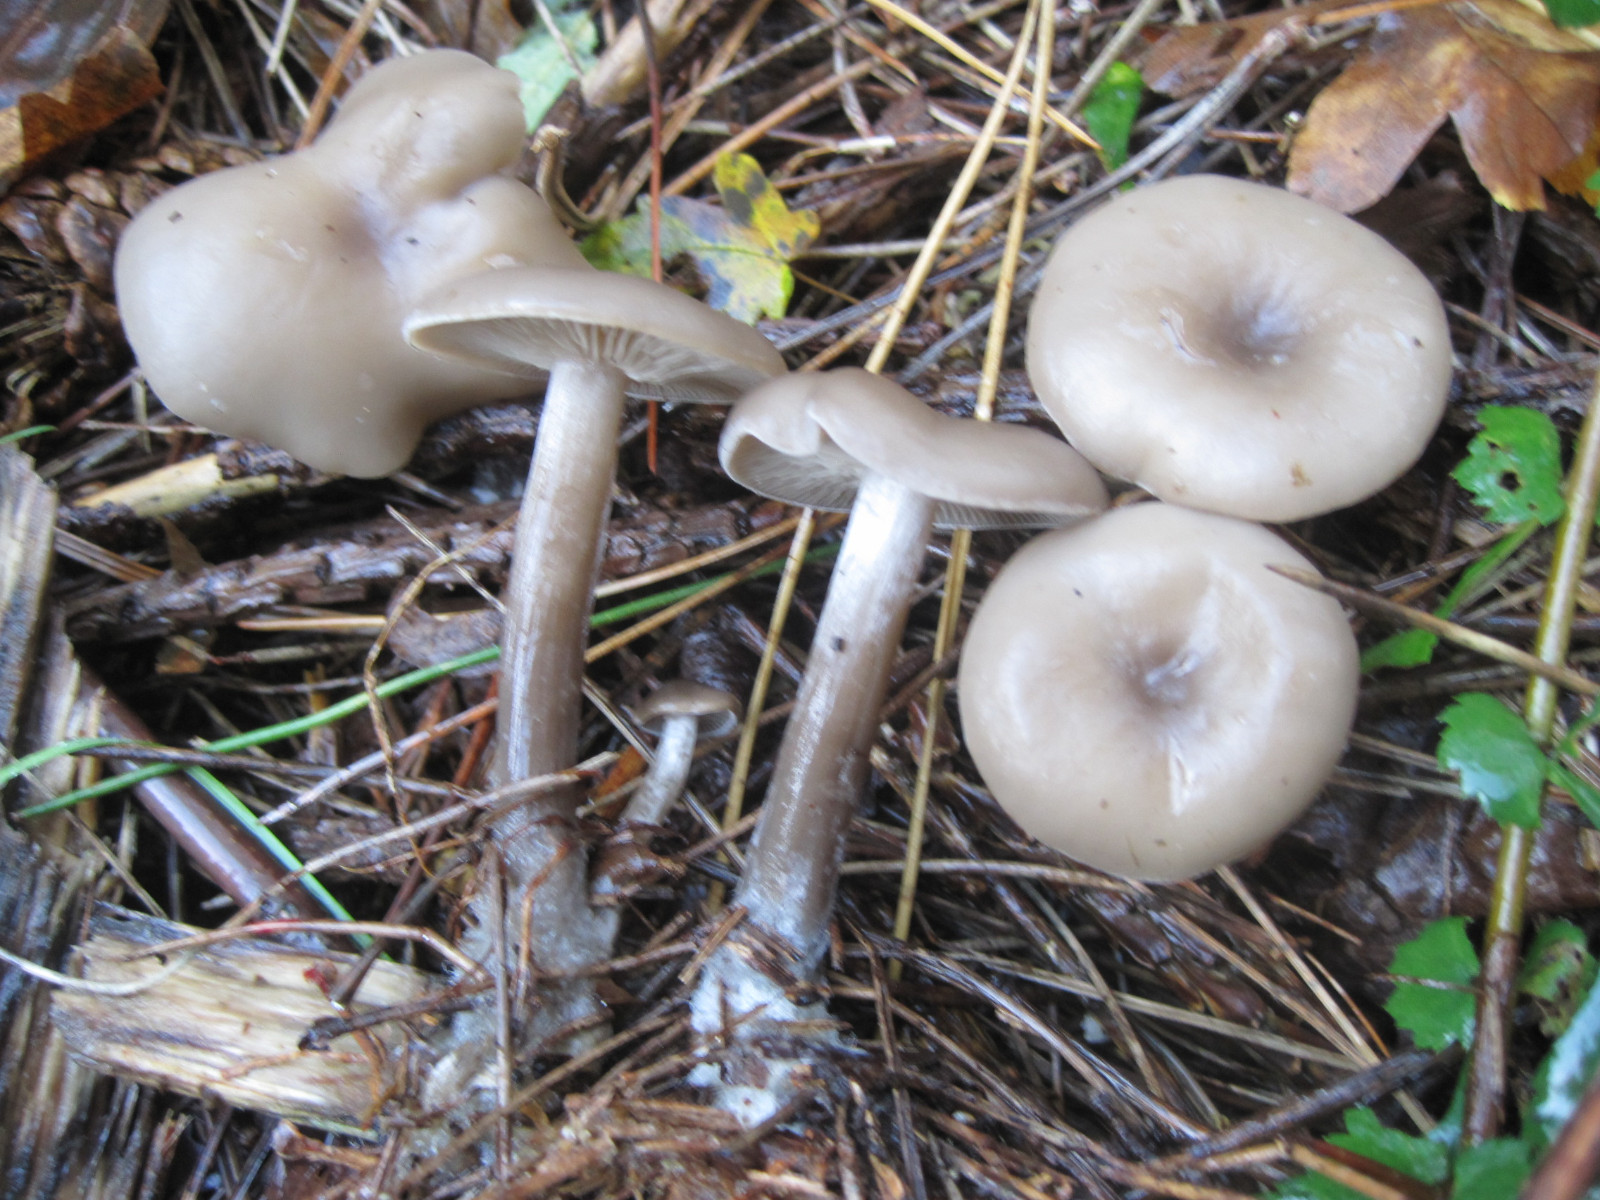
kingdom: Fungi
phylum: Basidiomycota
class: Agaricomycetes
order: Agaricales
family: Pseudoclitocybaceae
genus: Pseudoclitocybe
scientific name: Pseudoclitocybe cyathiformis
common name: almindelig bægertragthat
